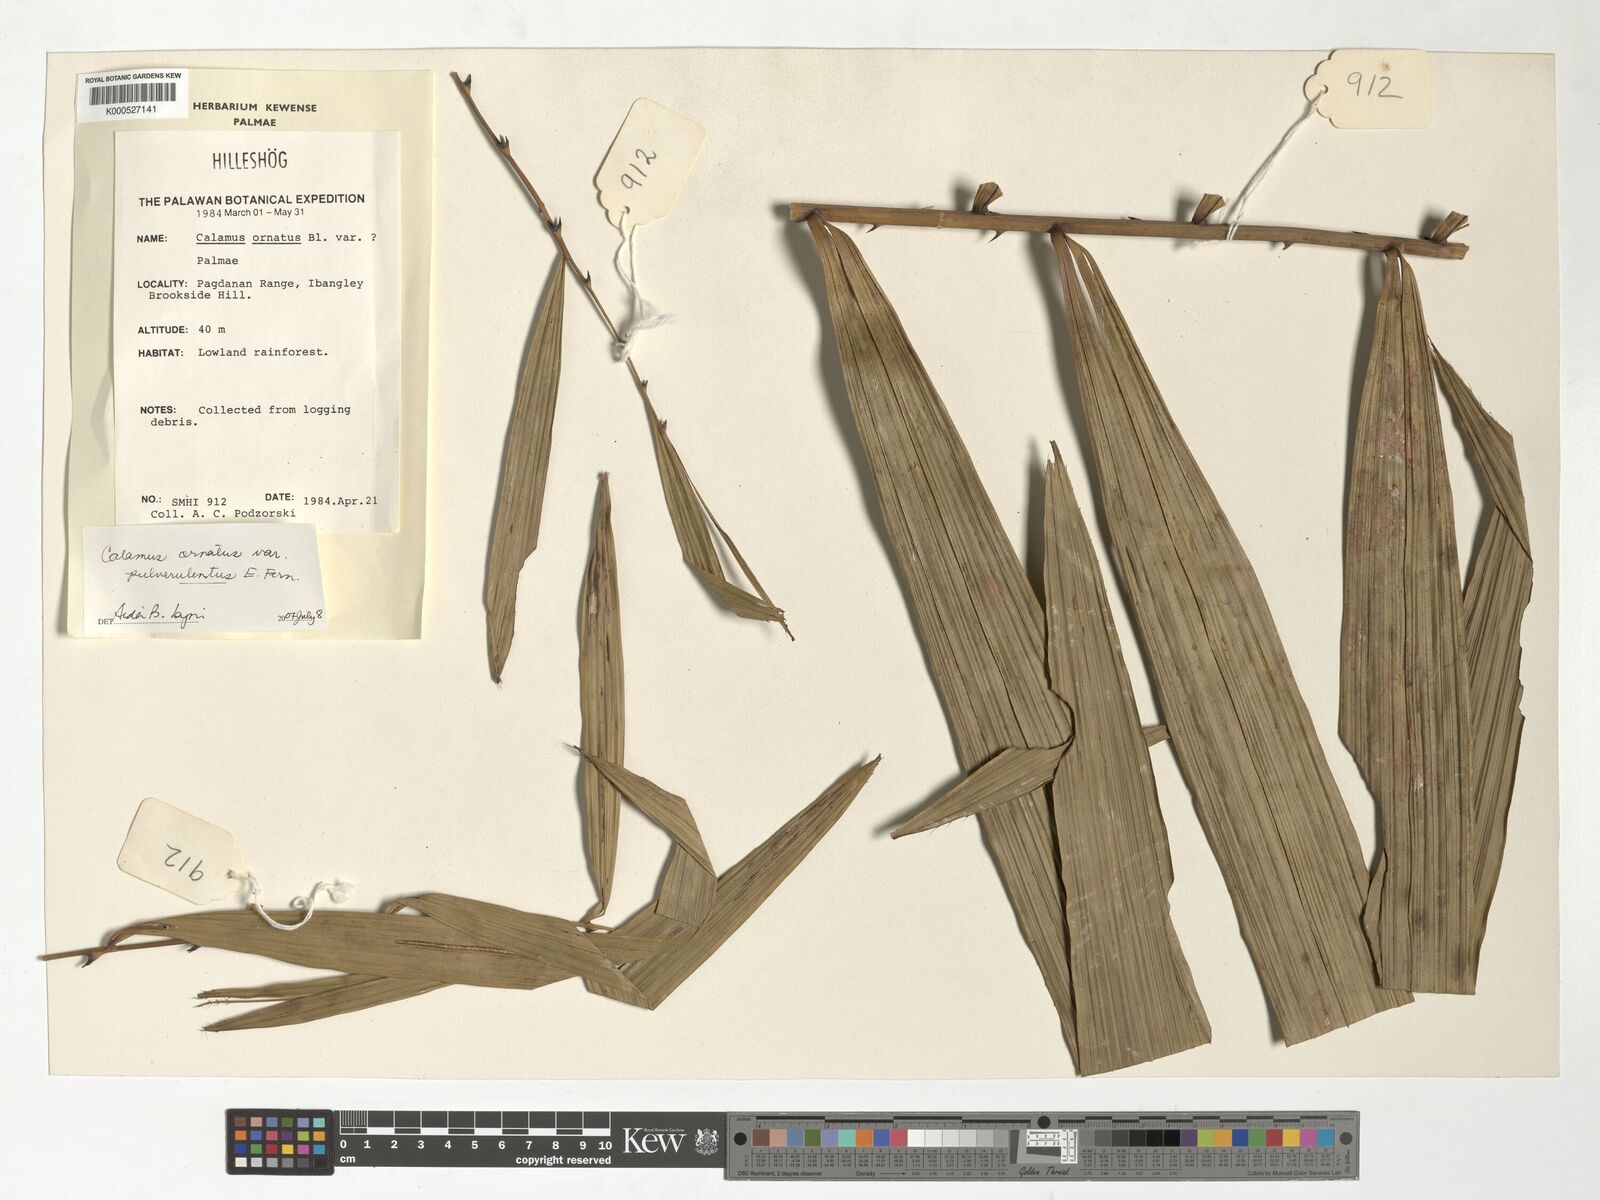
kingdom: Plantae
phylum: Tracheophyta
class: Liliopsida
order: Arecales
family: Arecaceae
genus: Calamus
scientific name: Calamus ornatus
